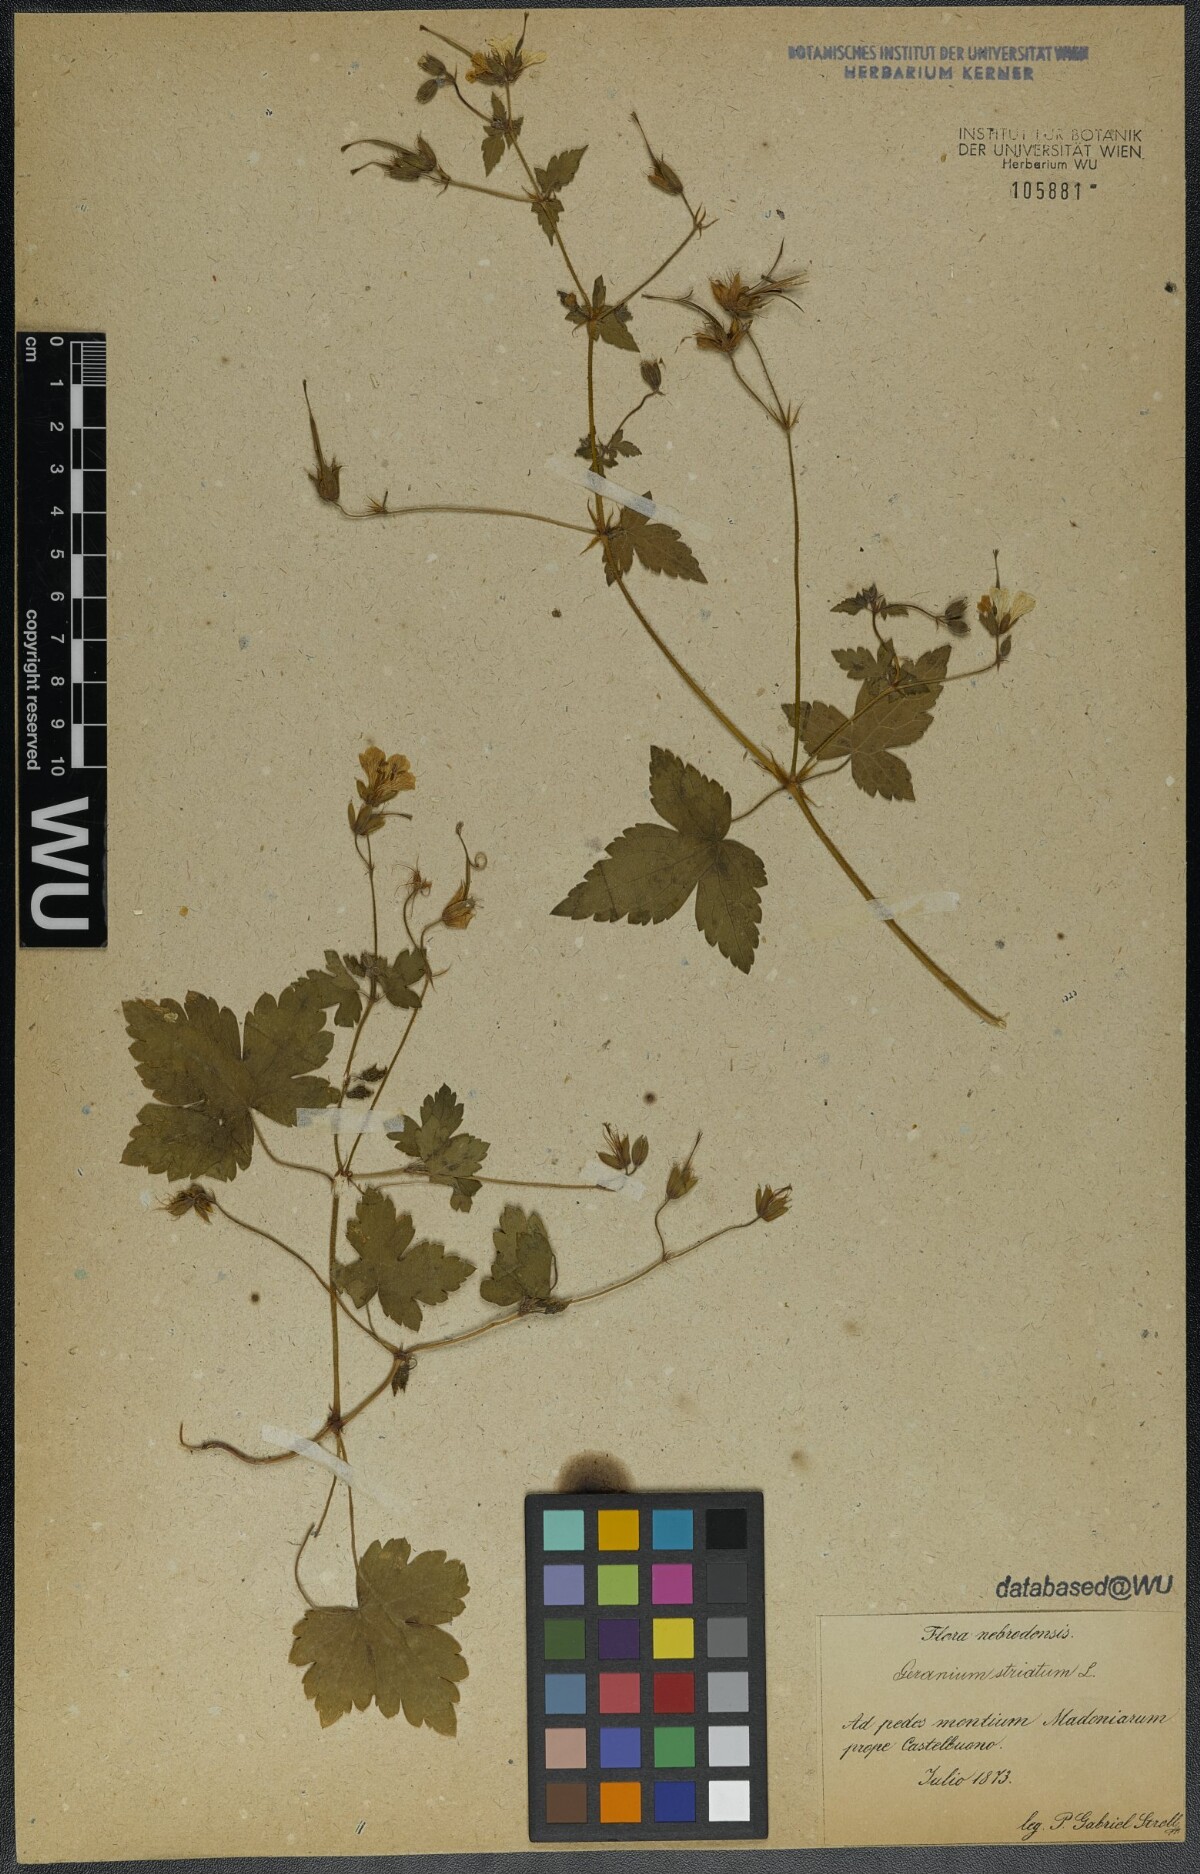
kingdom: Plantae
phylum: Tracheophyta
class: Magnoliopsida
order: Geraniales
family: Geraniaceae
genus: Geranium
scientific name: Geranium versicolor
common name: Pencilled crane's-bill
